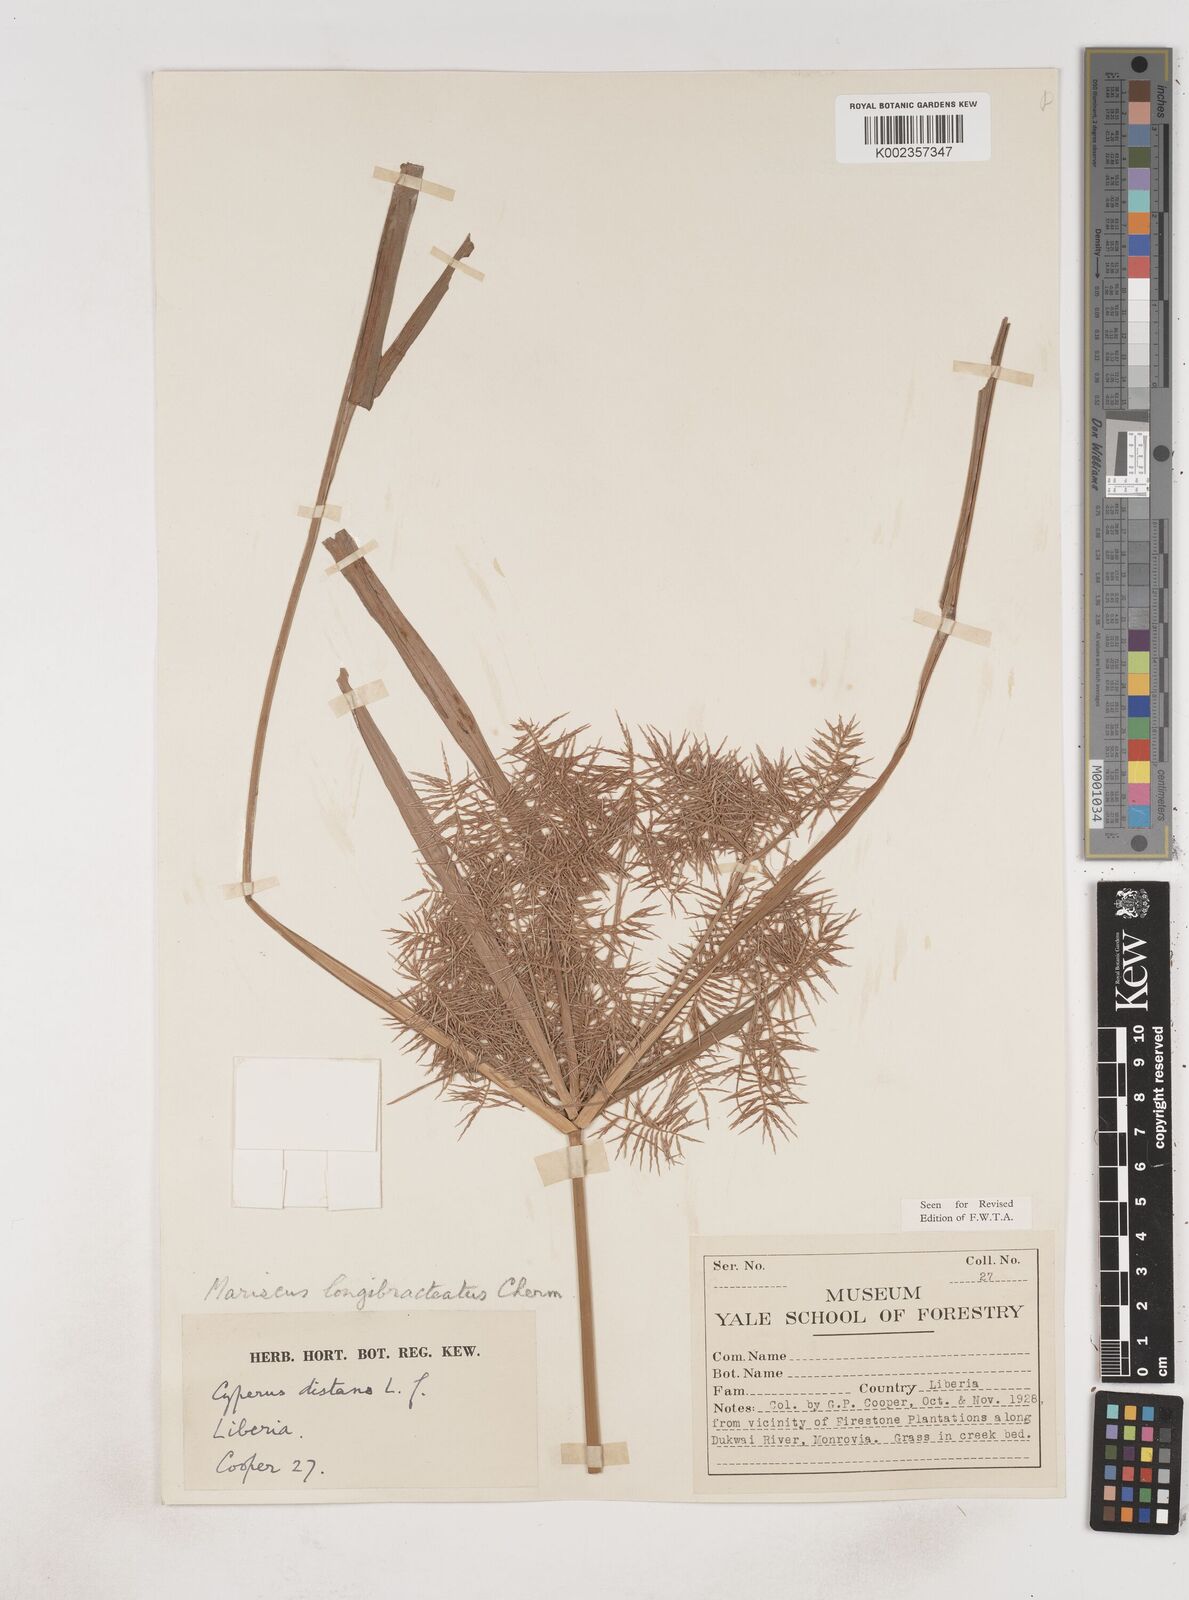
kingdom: Plantae
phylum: Tracheophyta
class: Liliopsida
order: Poales
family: Cyperaceae
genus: Cyperus
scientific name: Cyperus distans
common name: Slender cyperus
